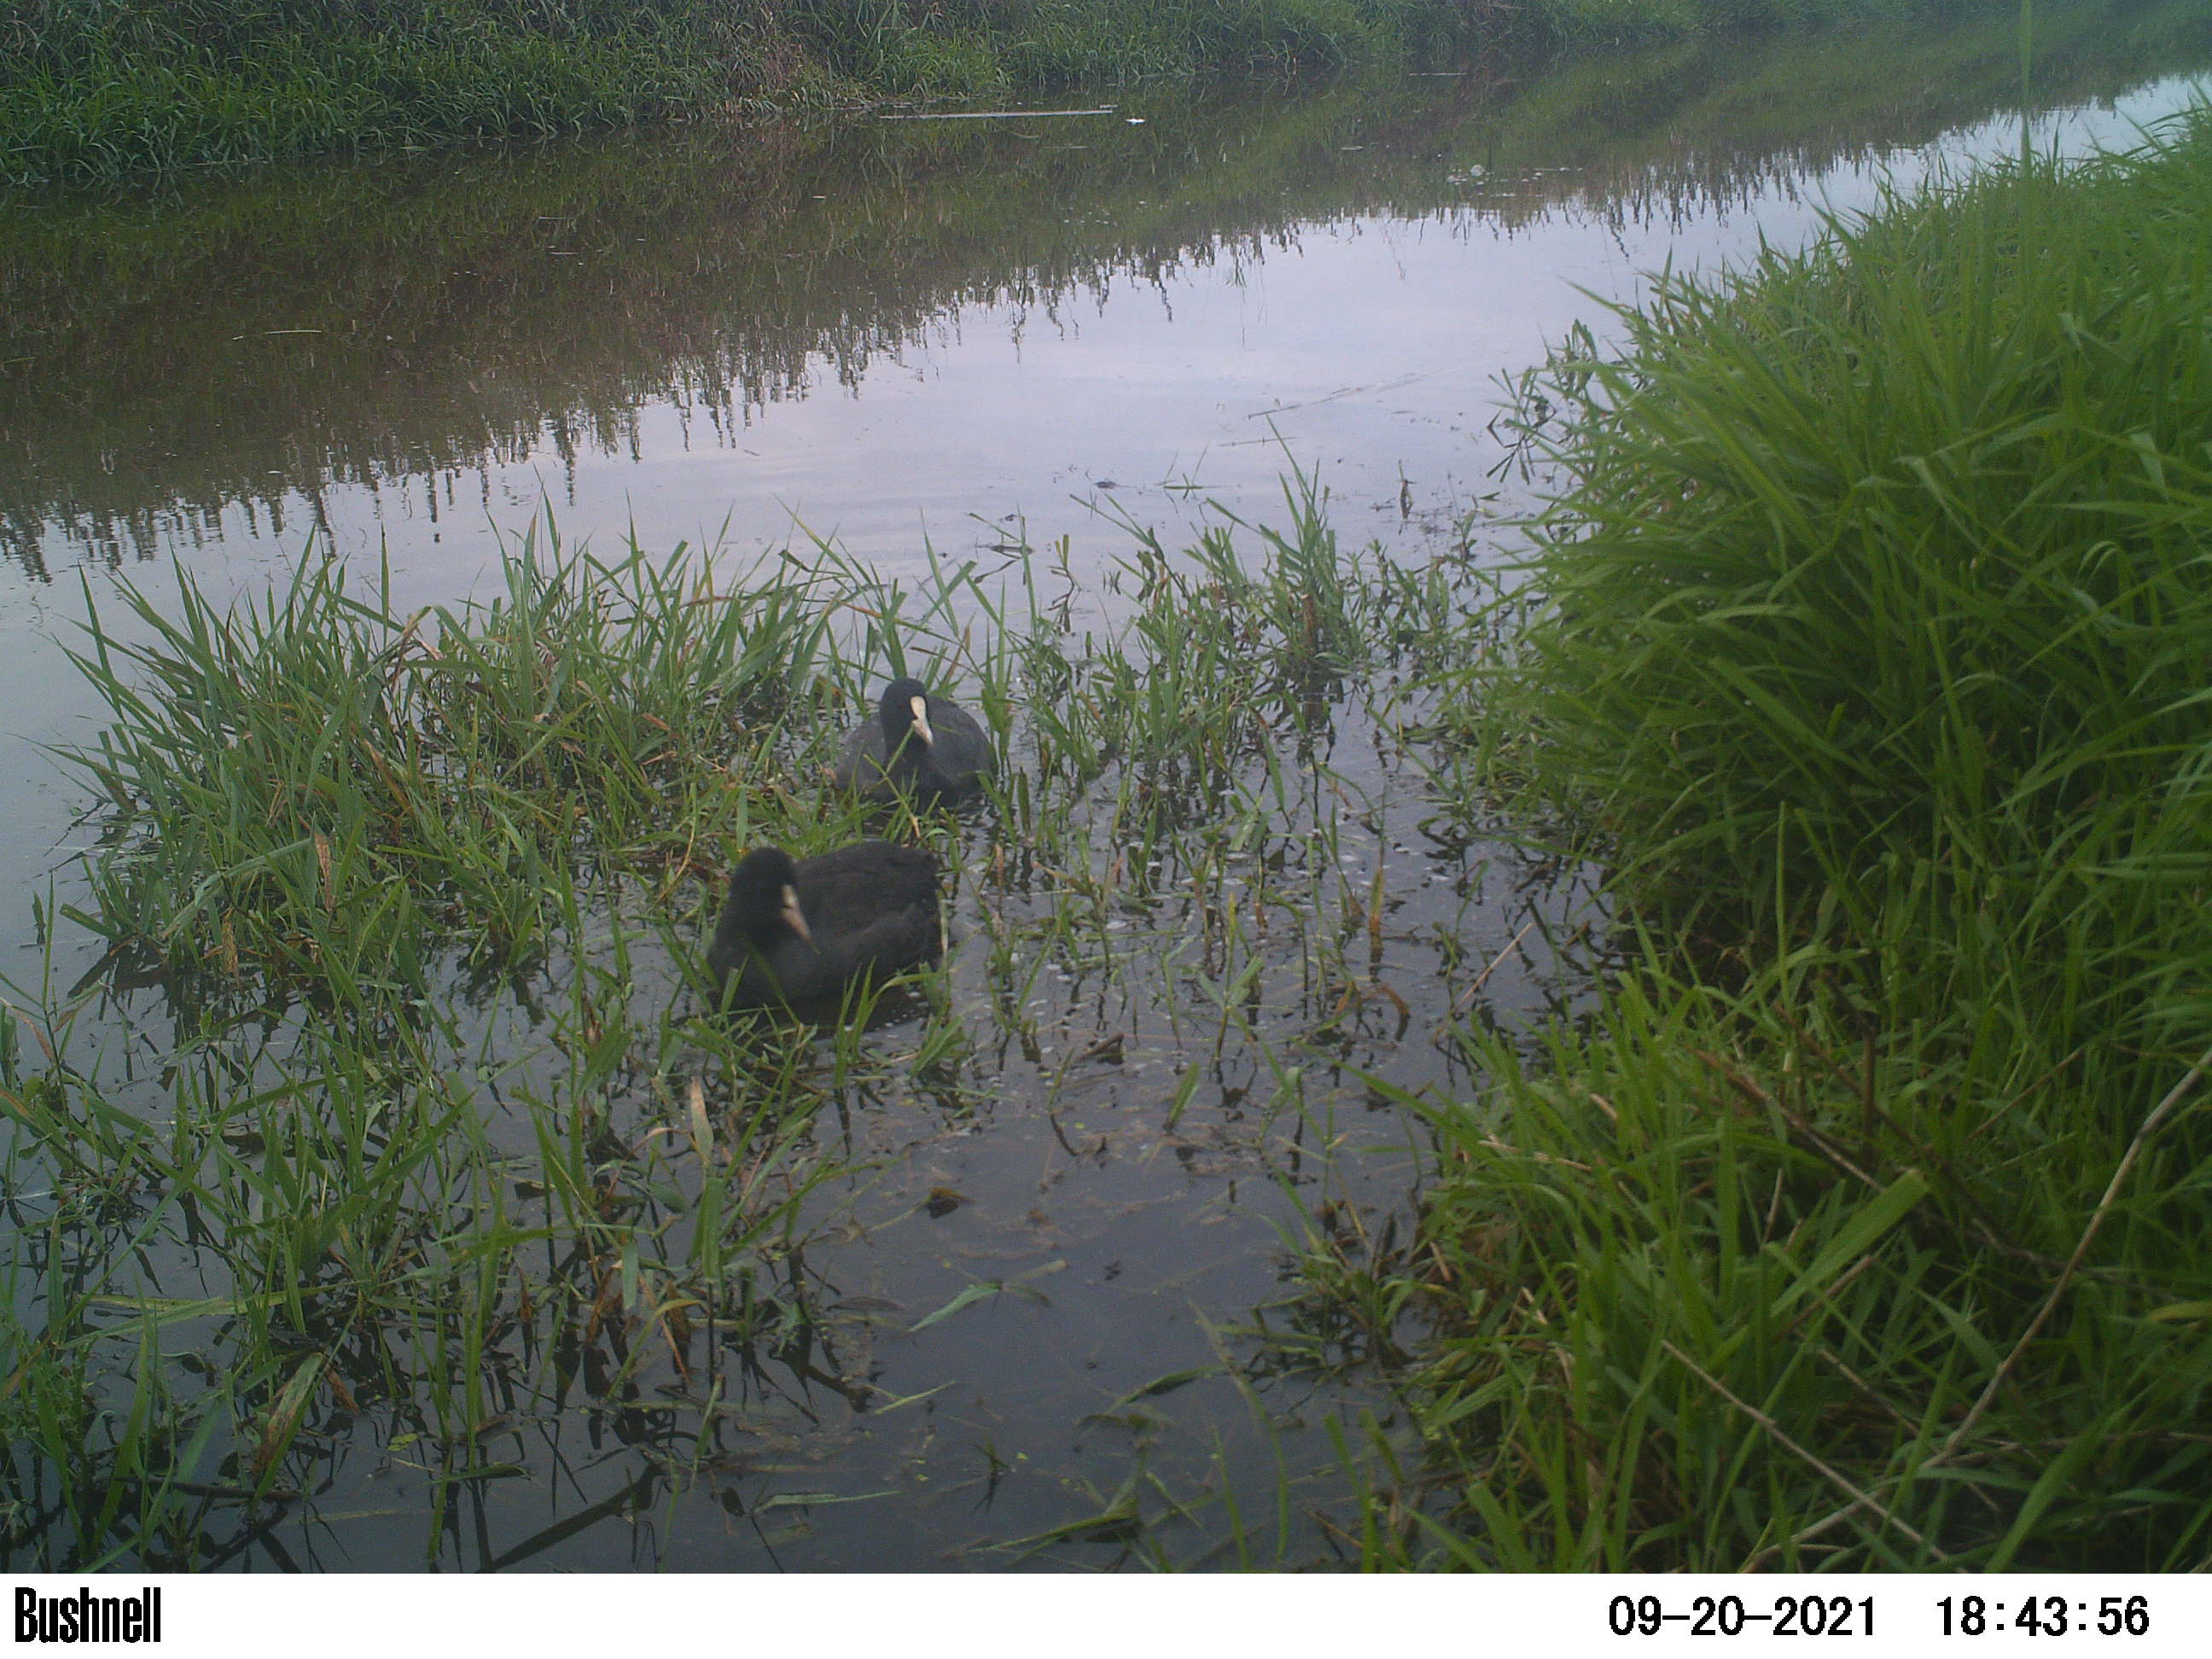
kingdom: Animalia
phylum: Chordata
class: Aves
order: Gruiformes
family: Rallidae
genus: Fulica
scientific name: Fulica atra
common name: Eurasian coot
